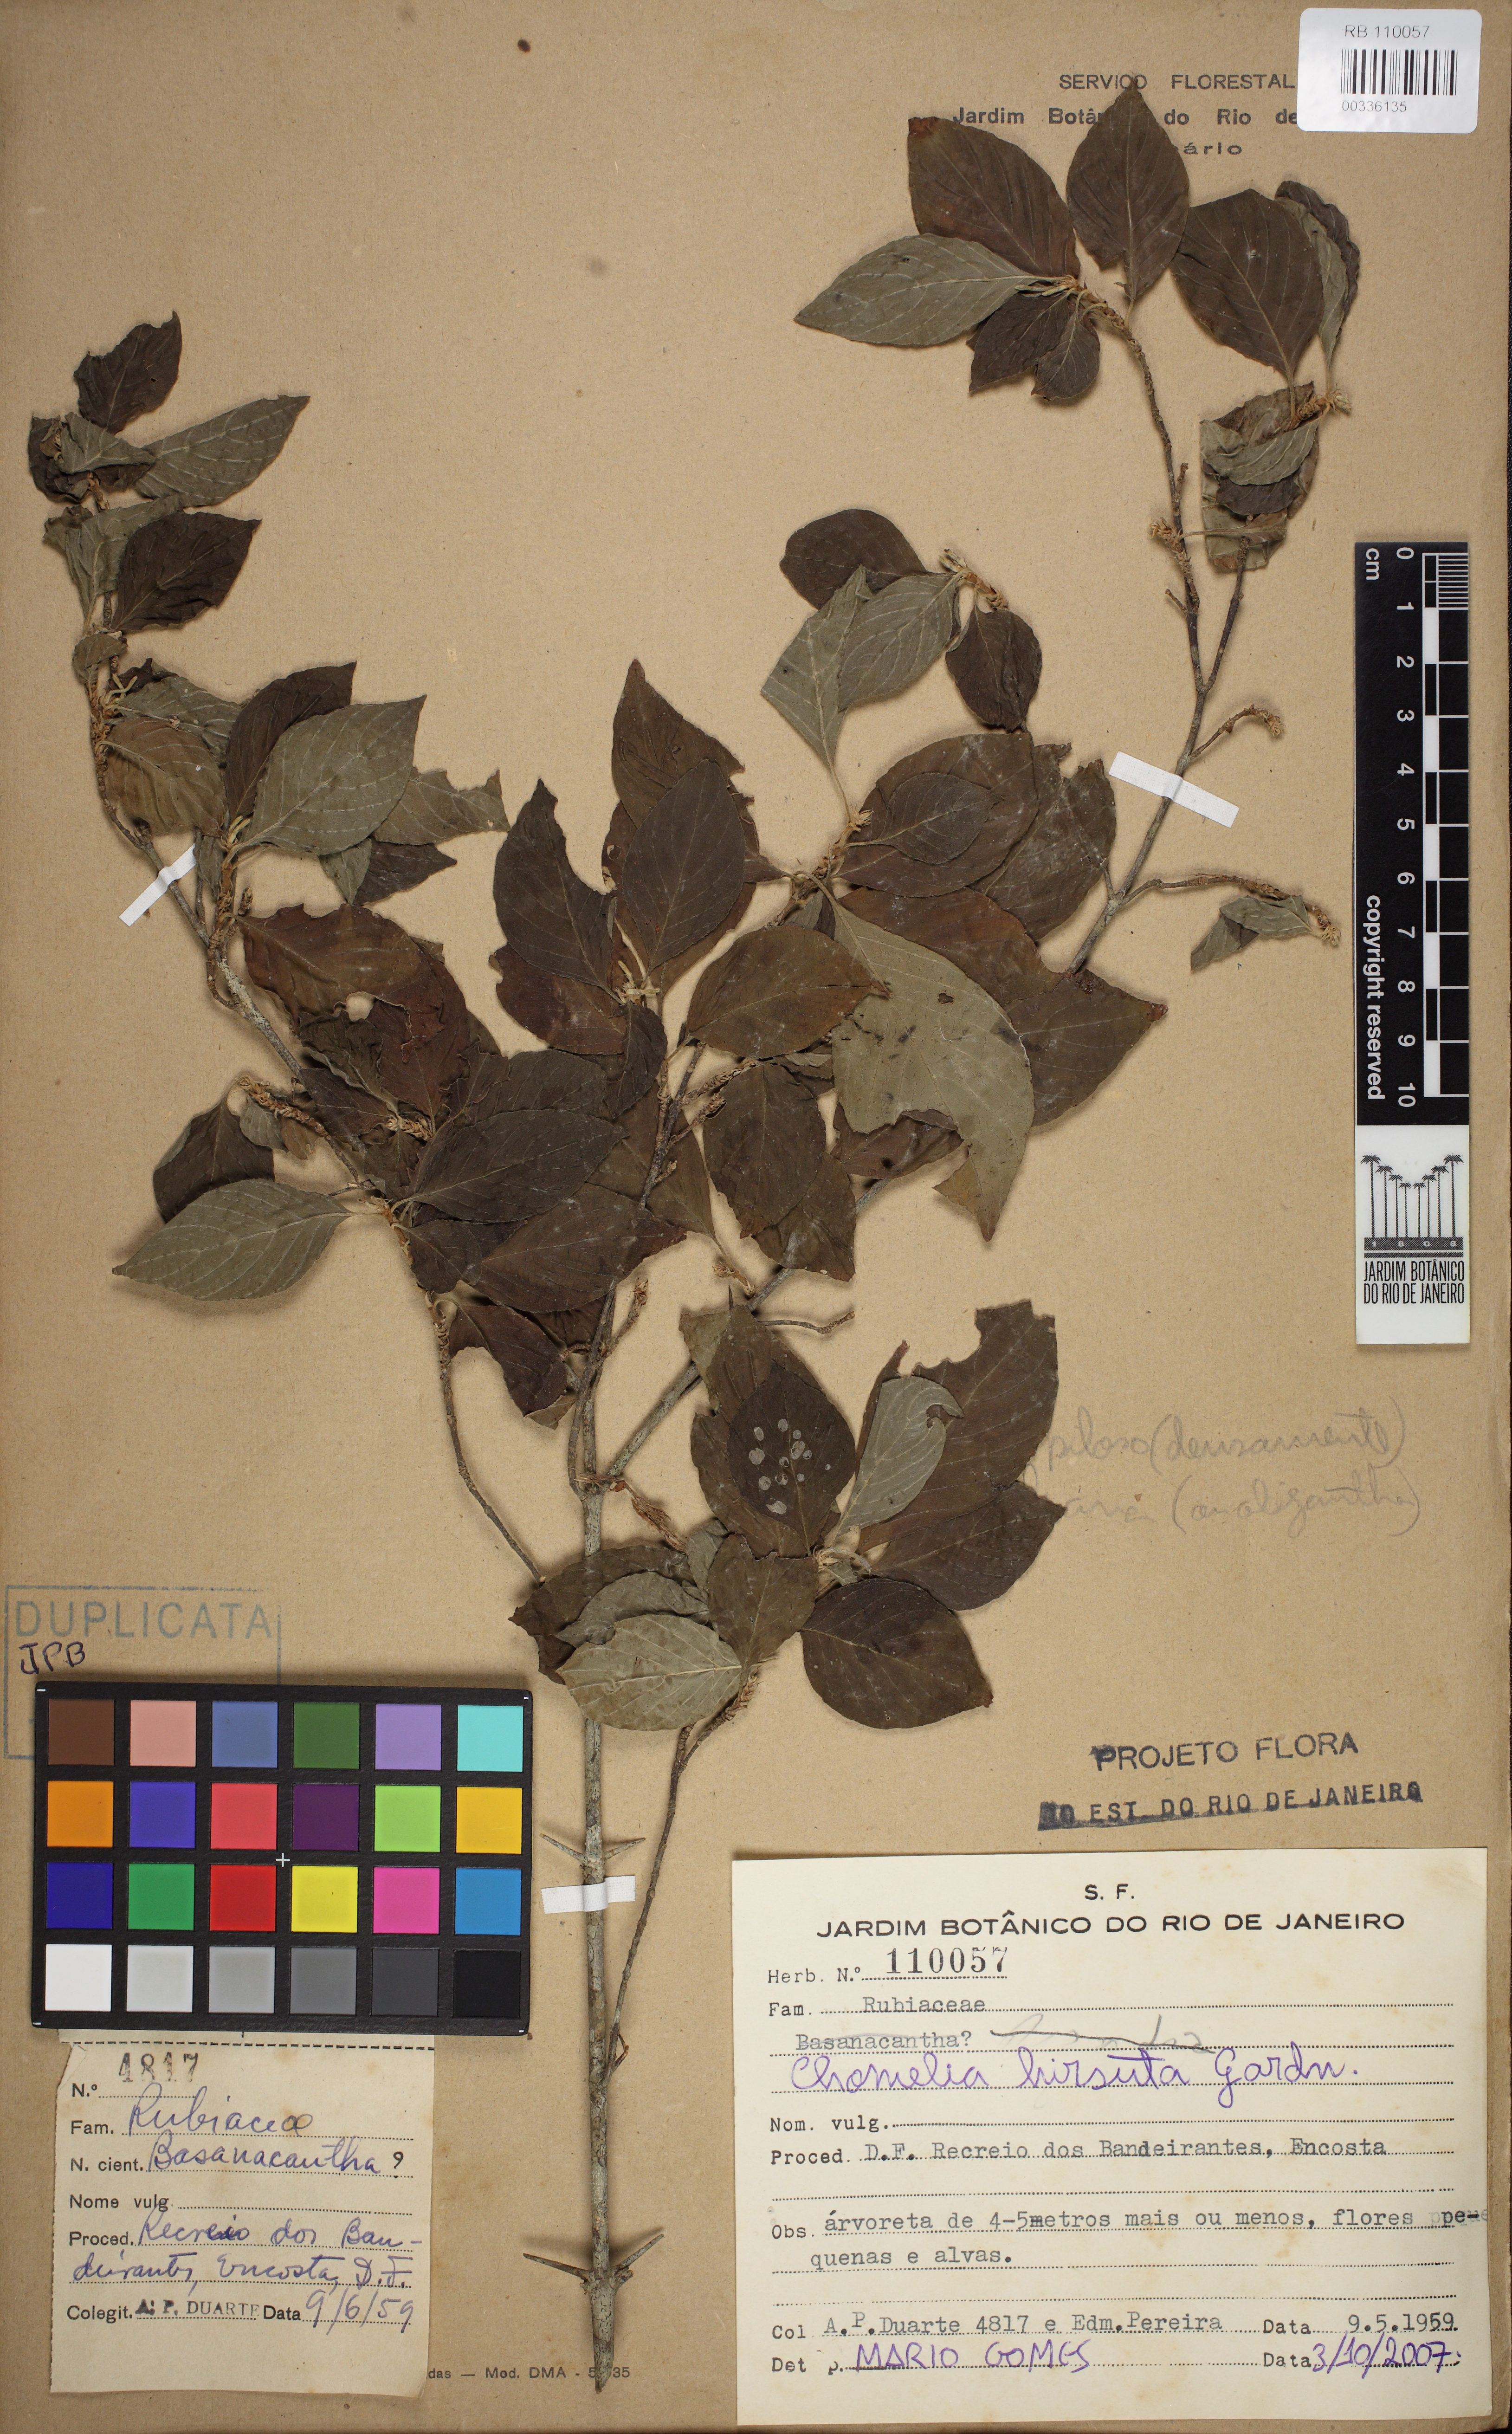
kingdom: Plantae
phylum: Tracheophyta
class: Magnoliopsida
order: Gentianales
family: Rubiaceae
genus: Chomelia
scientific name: Chomelia hirsuta
